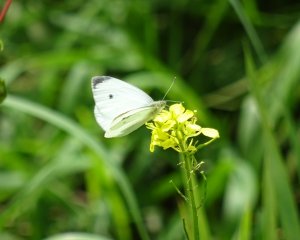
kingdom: Animalia
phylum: Arthropoda
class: Insecta
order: Lepidoptera
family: Pieridae
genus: Pieris
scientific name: Pieris rapae
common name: Cabbage White
